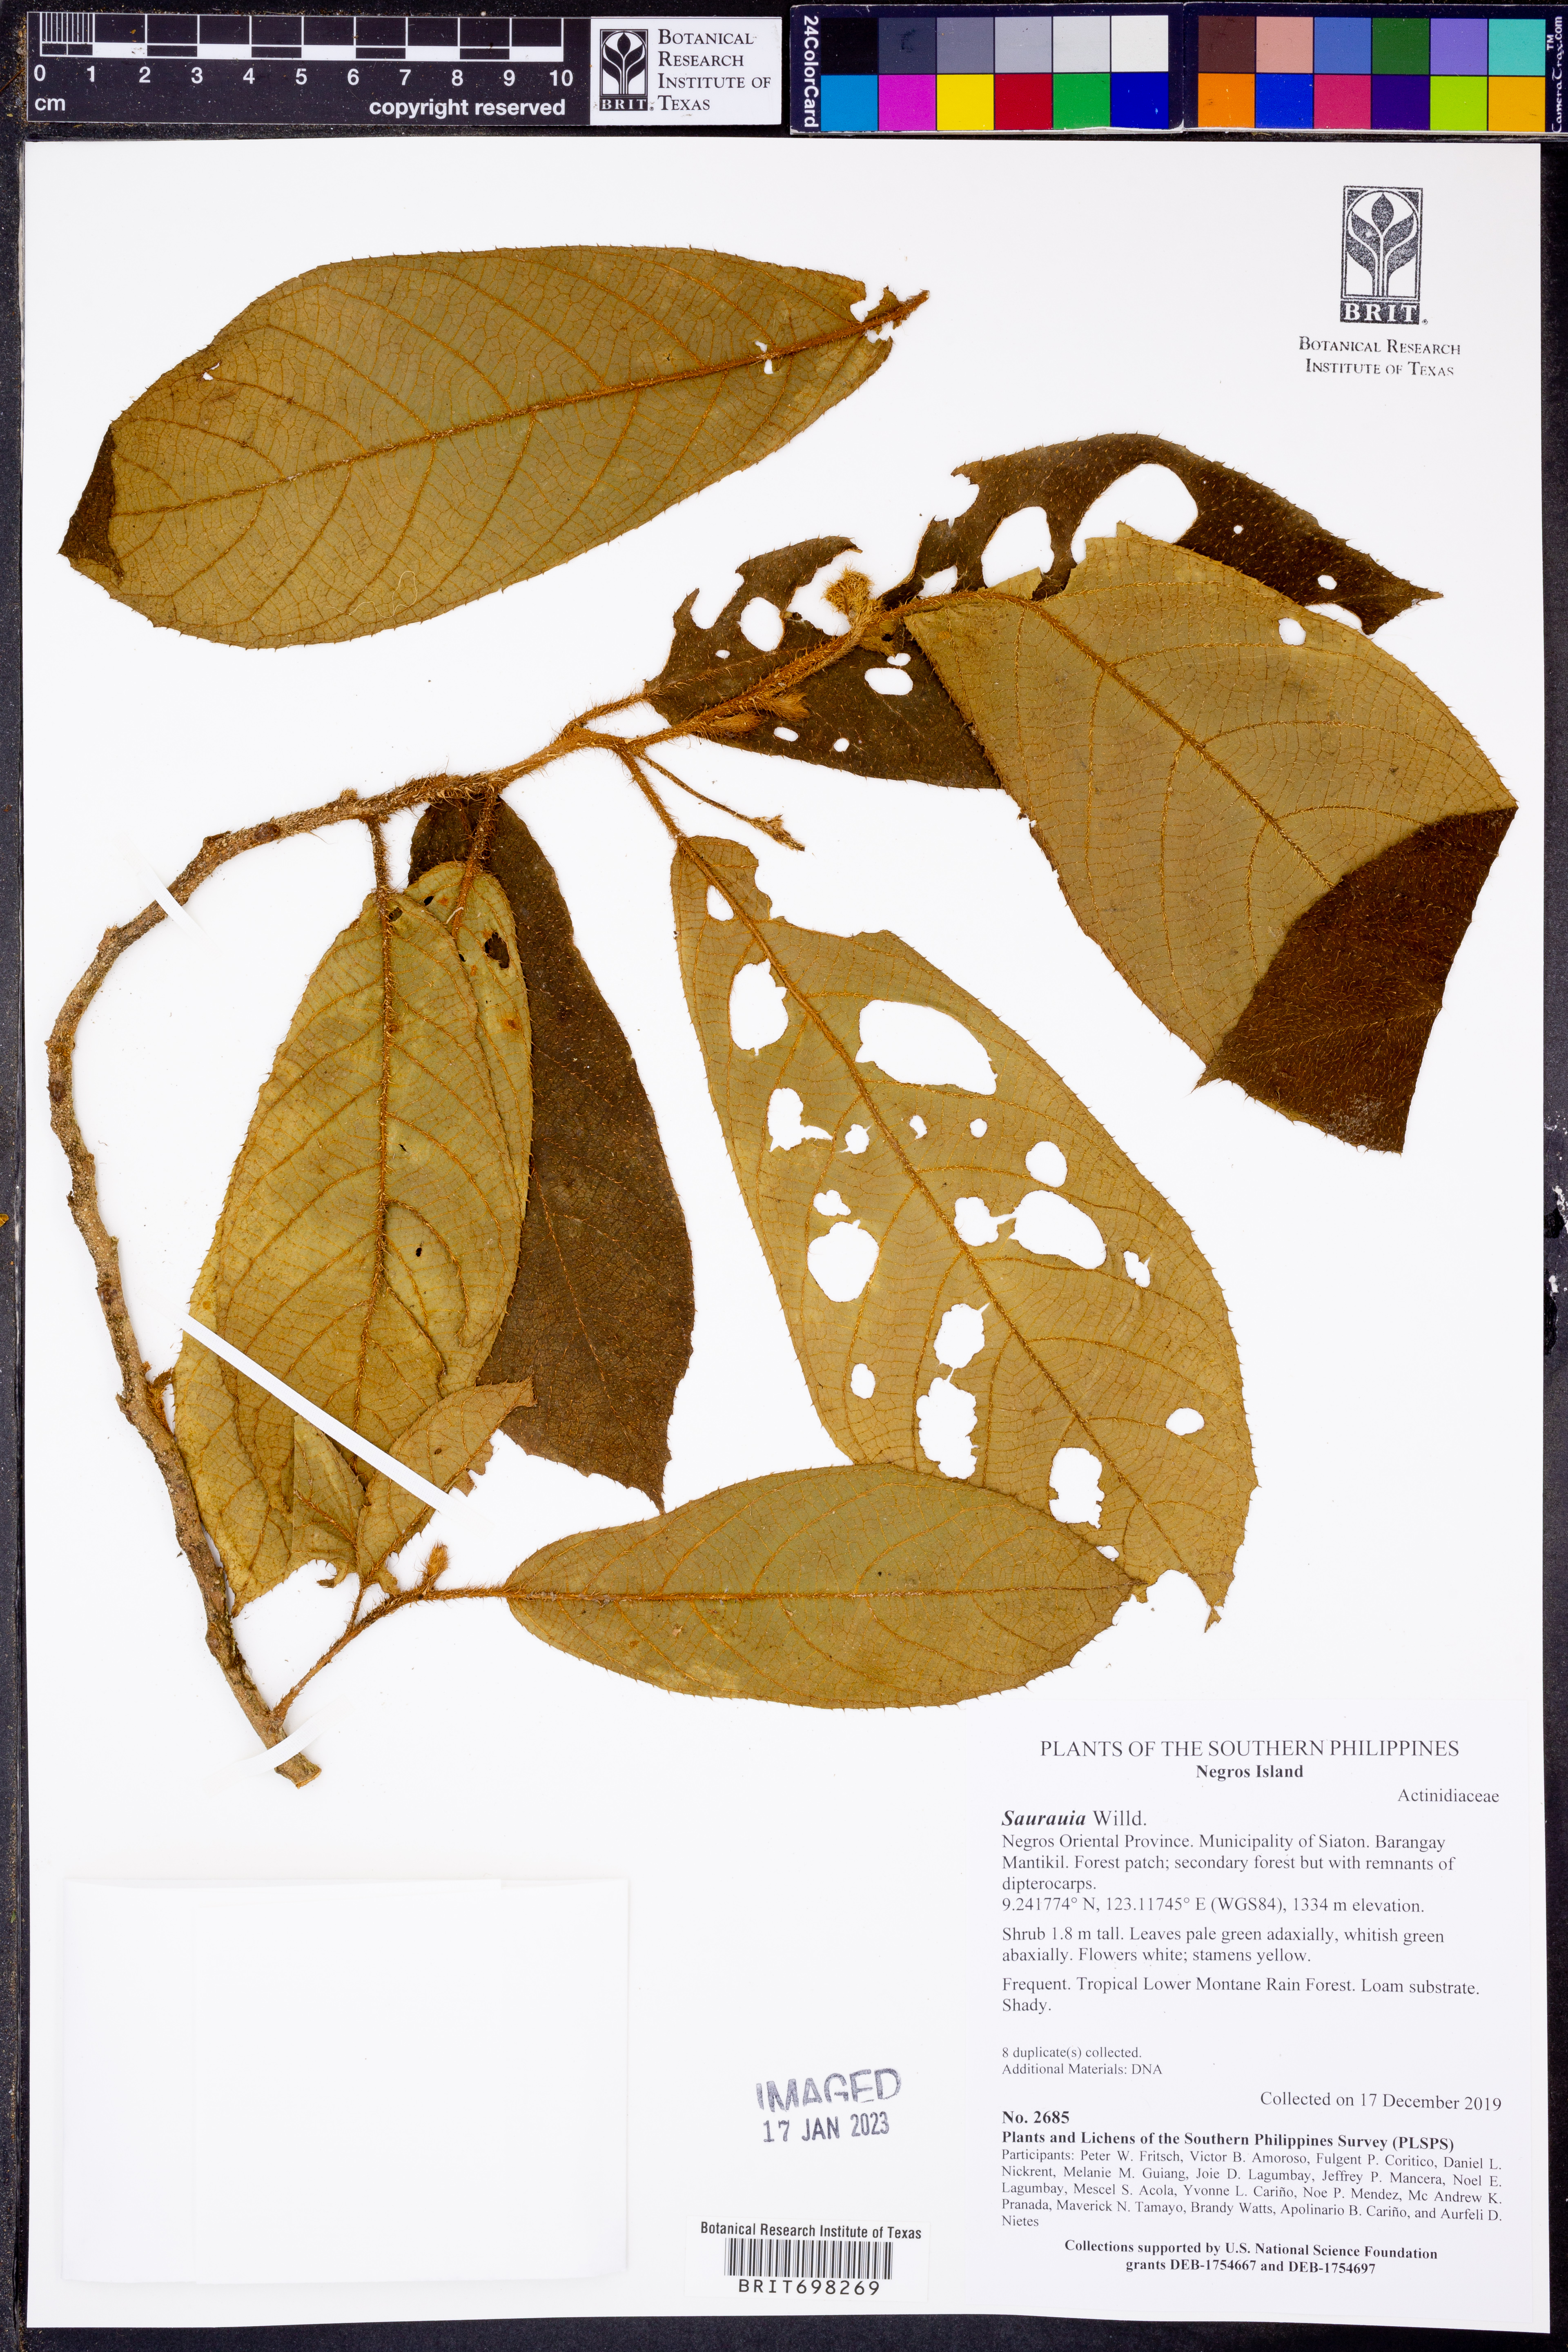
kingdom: Plantae
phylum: Tracheophyta
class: Magnoliopsida
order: Ericales
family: Actinidiaceae
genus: Saurauia
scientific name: Saurauia
